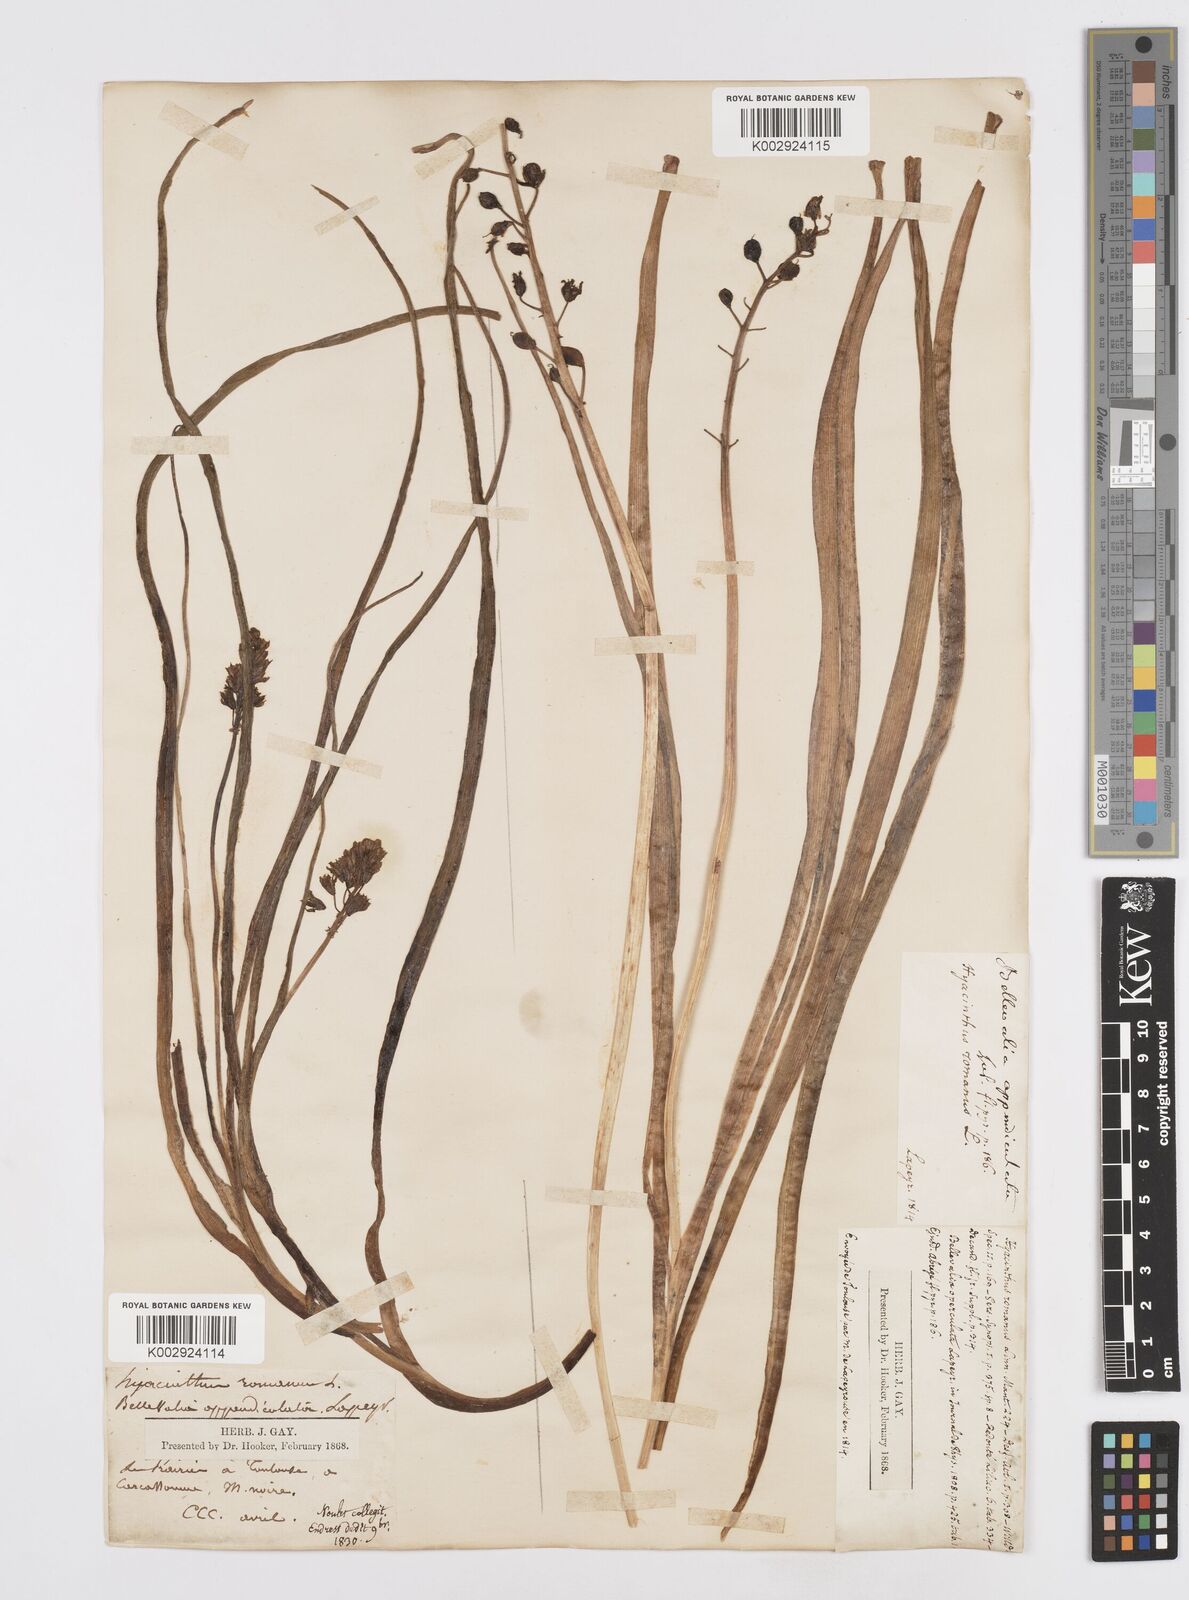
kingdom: Plantae
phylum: Tracheophyta
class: Liliopsida
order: Asparagales
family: Asparagaceae
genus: Bellevalia
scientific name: Bellevalia
